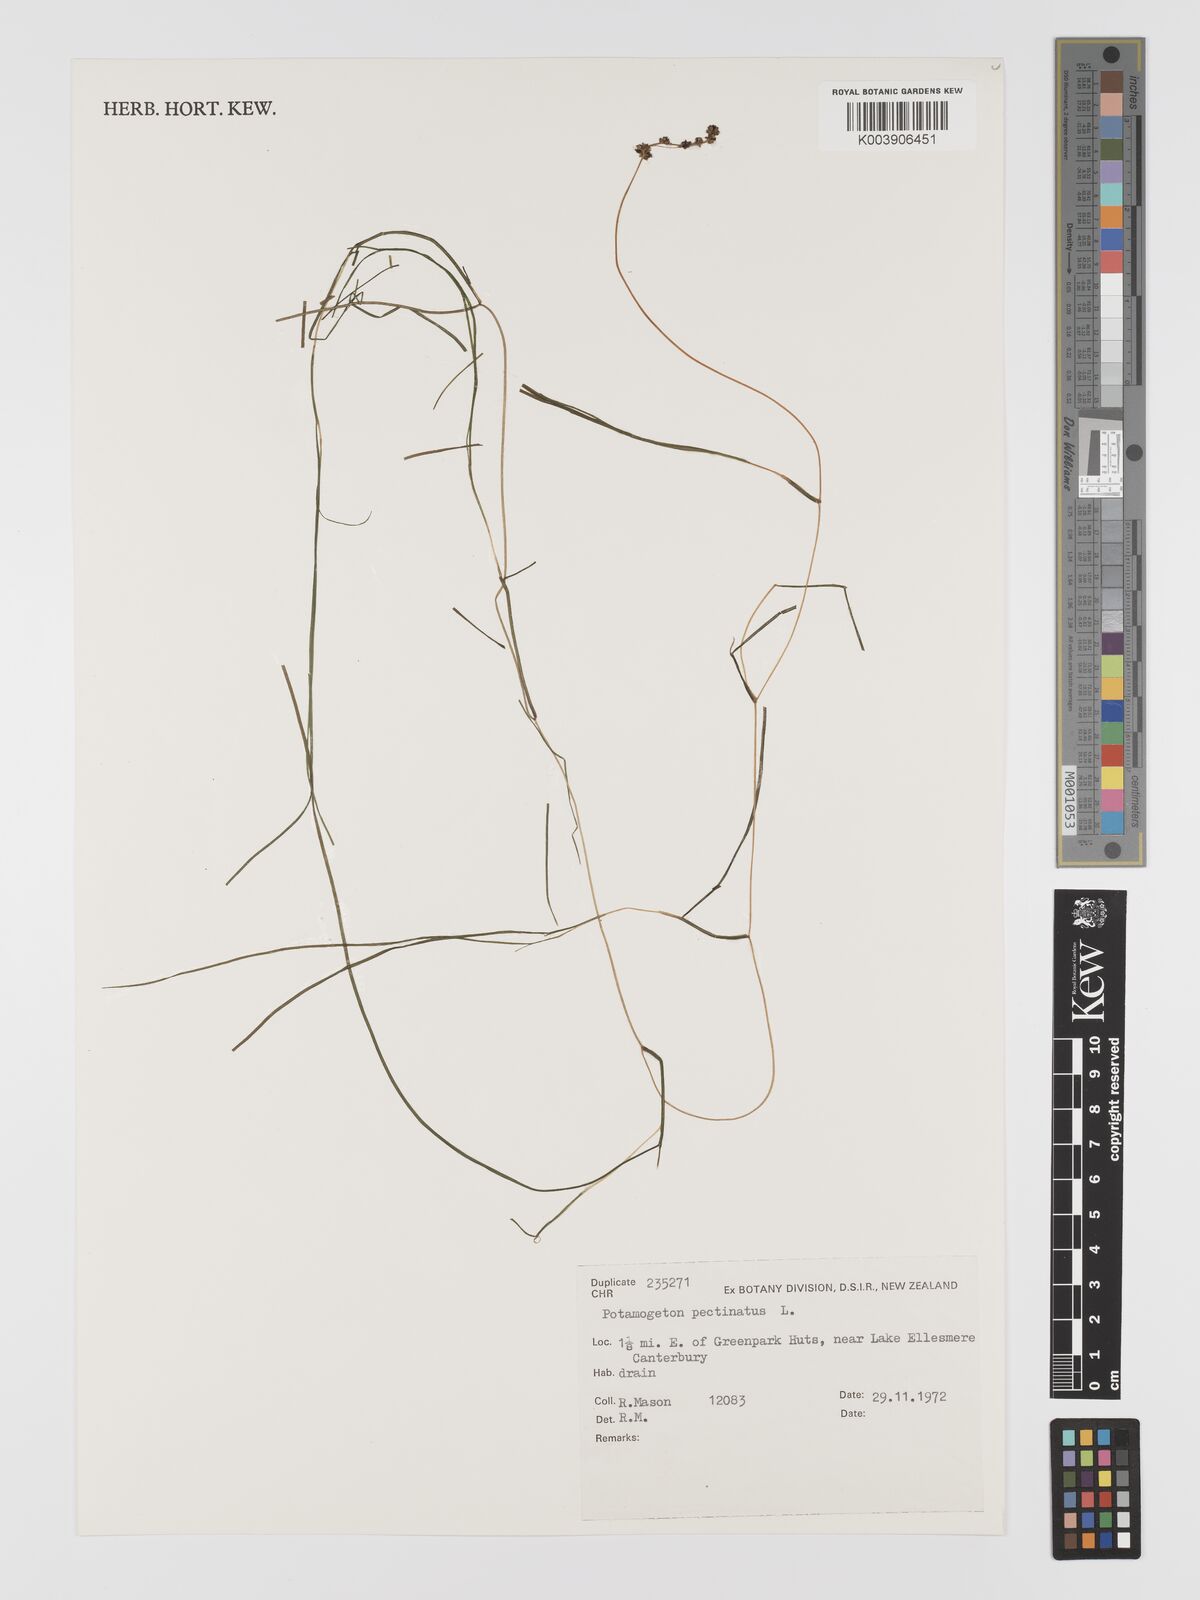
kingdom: Plantae
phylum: Tracheophyta
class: Liliopsida
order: Alismatales
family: Potamogetonaceae
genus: Stuckenia
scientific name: Stuckenia pectinata
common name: Sago pondweed
